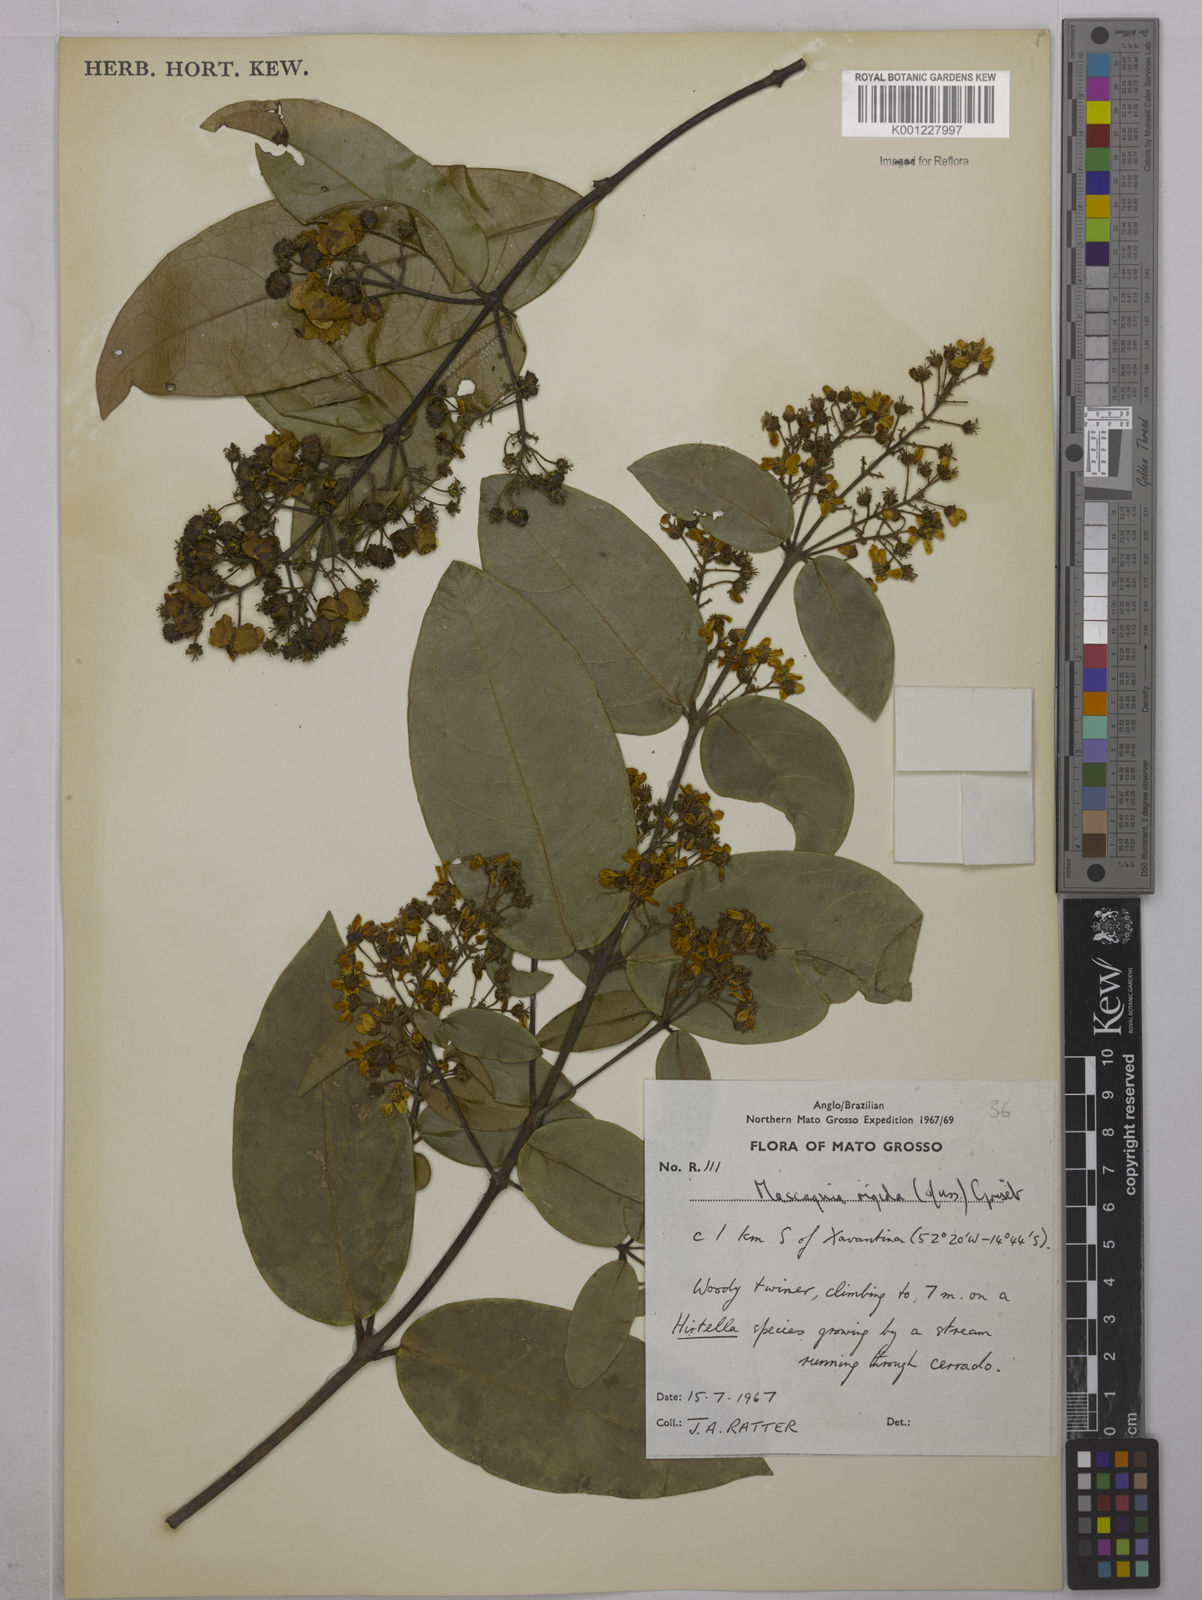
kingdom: Plantae
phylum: Tracheophyta
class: Magnoliopsida
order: Malpighiales
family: Malpighiaceae
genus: Amorimia
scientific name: Amorimia rigida
